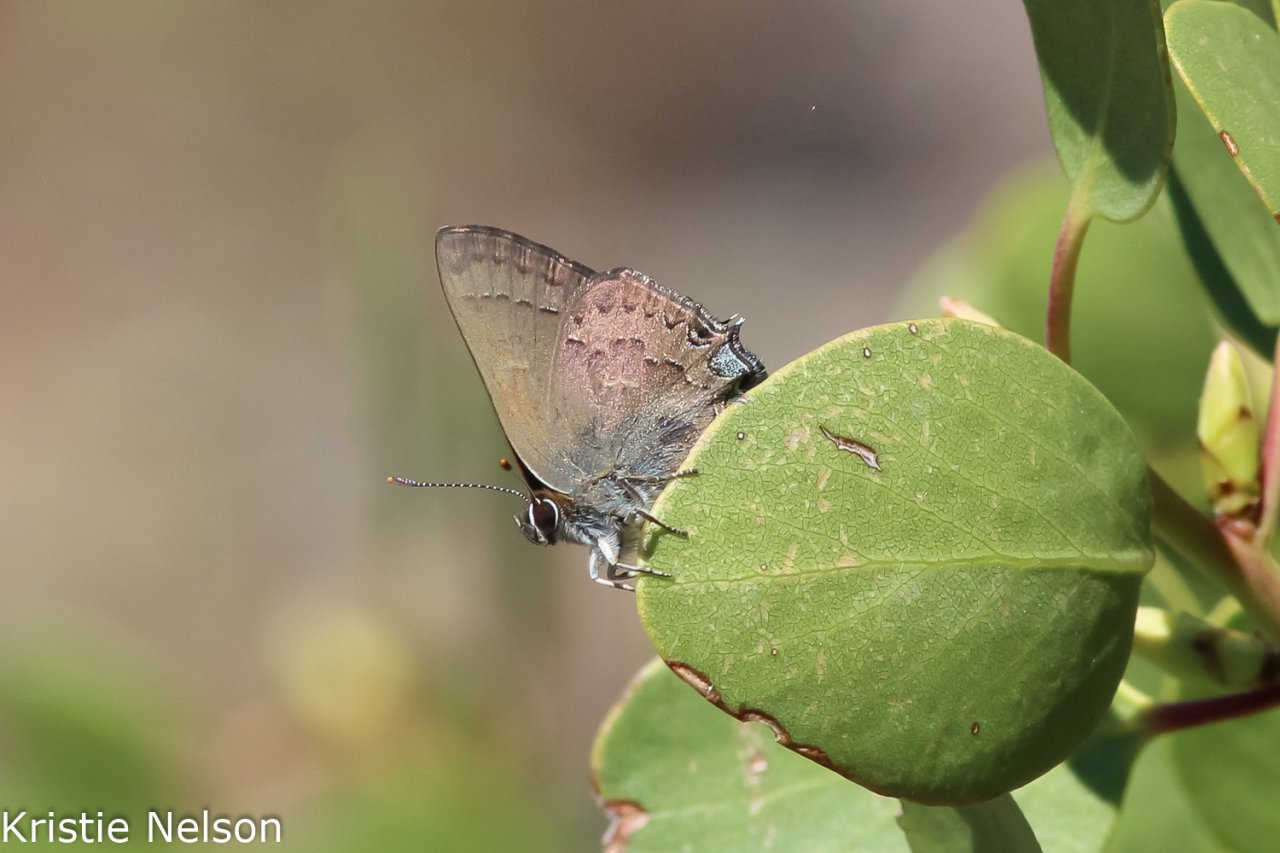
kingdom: Animalia
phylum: Arthropoda
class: Insecta
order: Lepidoptera
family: Lycaenidae
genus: Strymon
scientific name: Strymon saepium
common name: Hedgerow Hairstreak
